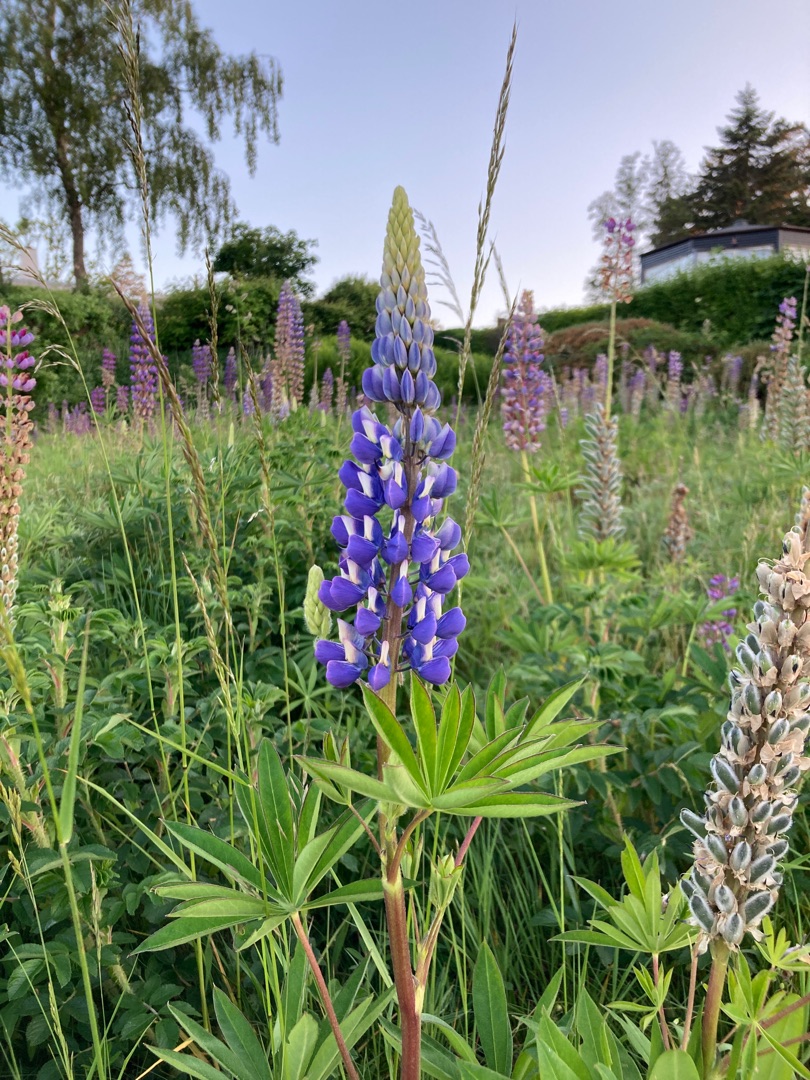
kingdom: Plantae
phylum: Tracheophyta
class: Magnoliopsida
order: Fabales
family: Fabaceae
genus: Lupinus
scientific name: Lupinus polyphyllus
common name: Mangebladet lupin
